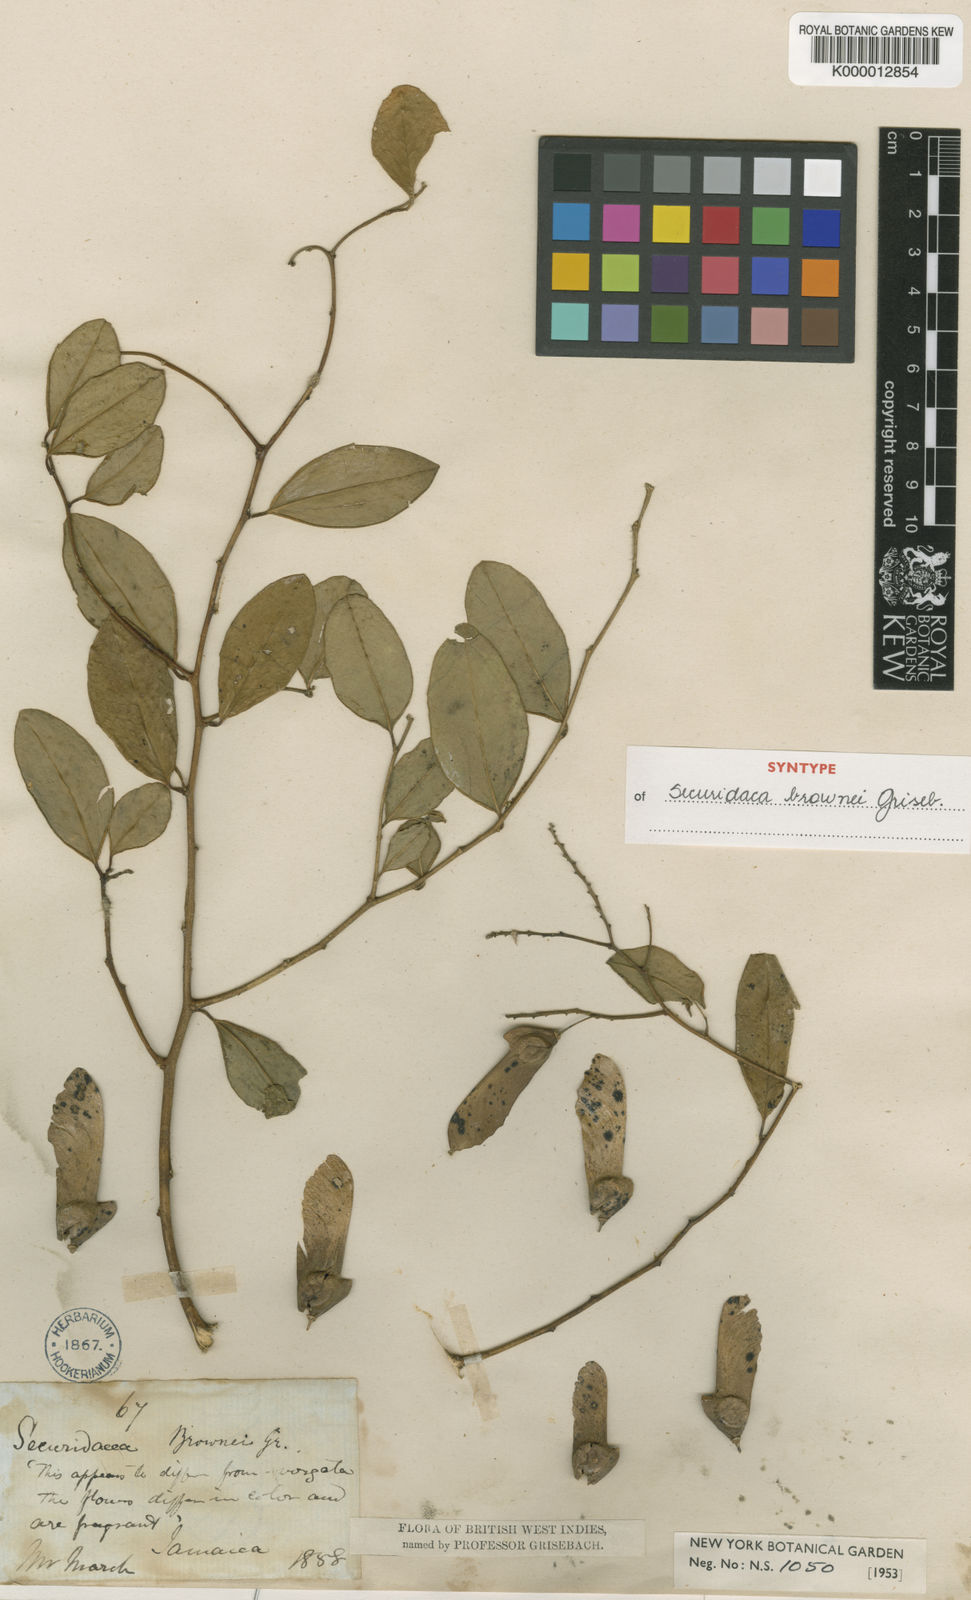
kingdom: Plantae
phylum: Tracheophyta
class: Magnoliopsida
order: Fabales
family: Polygalaceae
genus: Securidaca
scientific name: Securidaca brownii
